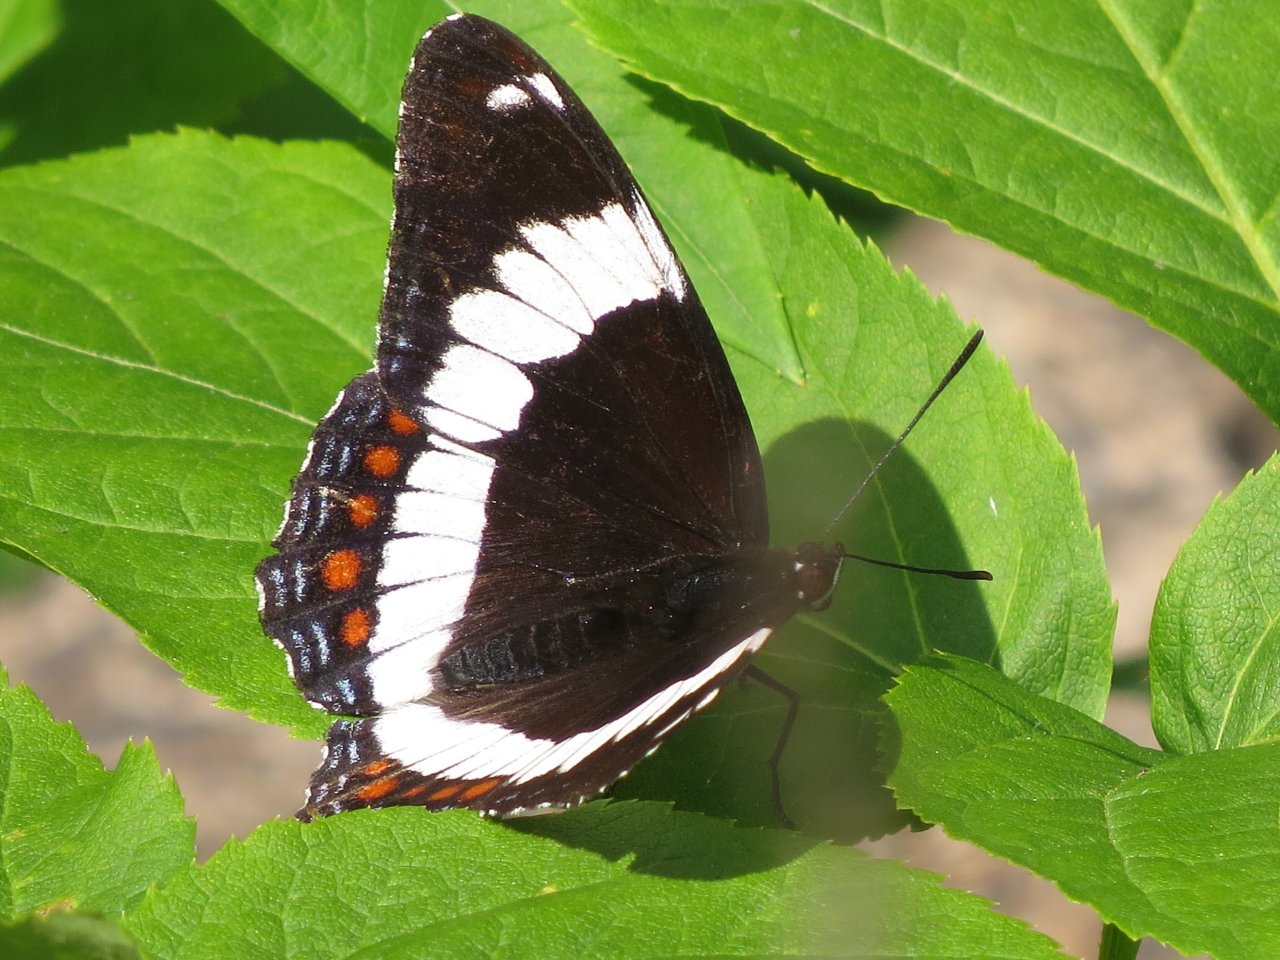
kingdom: Animalia
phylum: Arthropoda
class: Insecta
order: Lepidoptera
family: Nymphalidae
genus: Limenitis
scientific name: Limenitis arthemis
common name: Red-spotted Admiral
